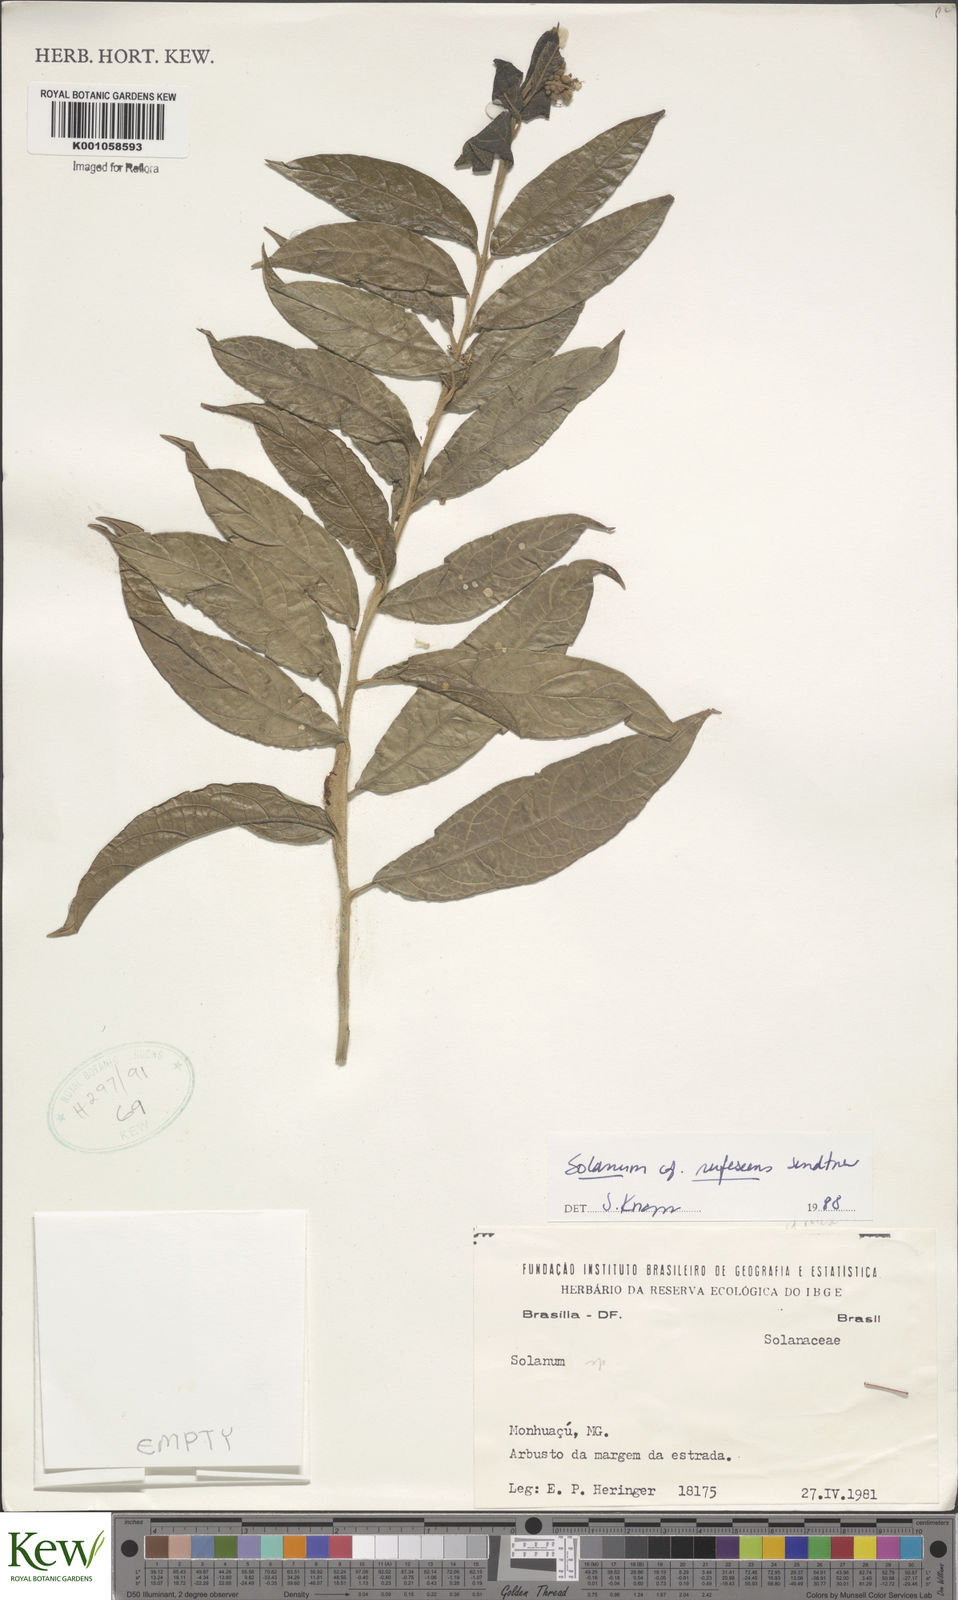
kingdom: Plantae
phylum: Tracheophyta
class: Magnoliopsida
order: Solanales
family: Solanaceae
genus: Solanum
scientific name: Solanum rufescens
